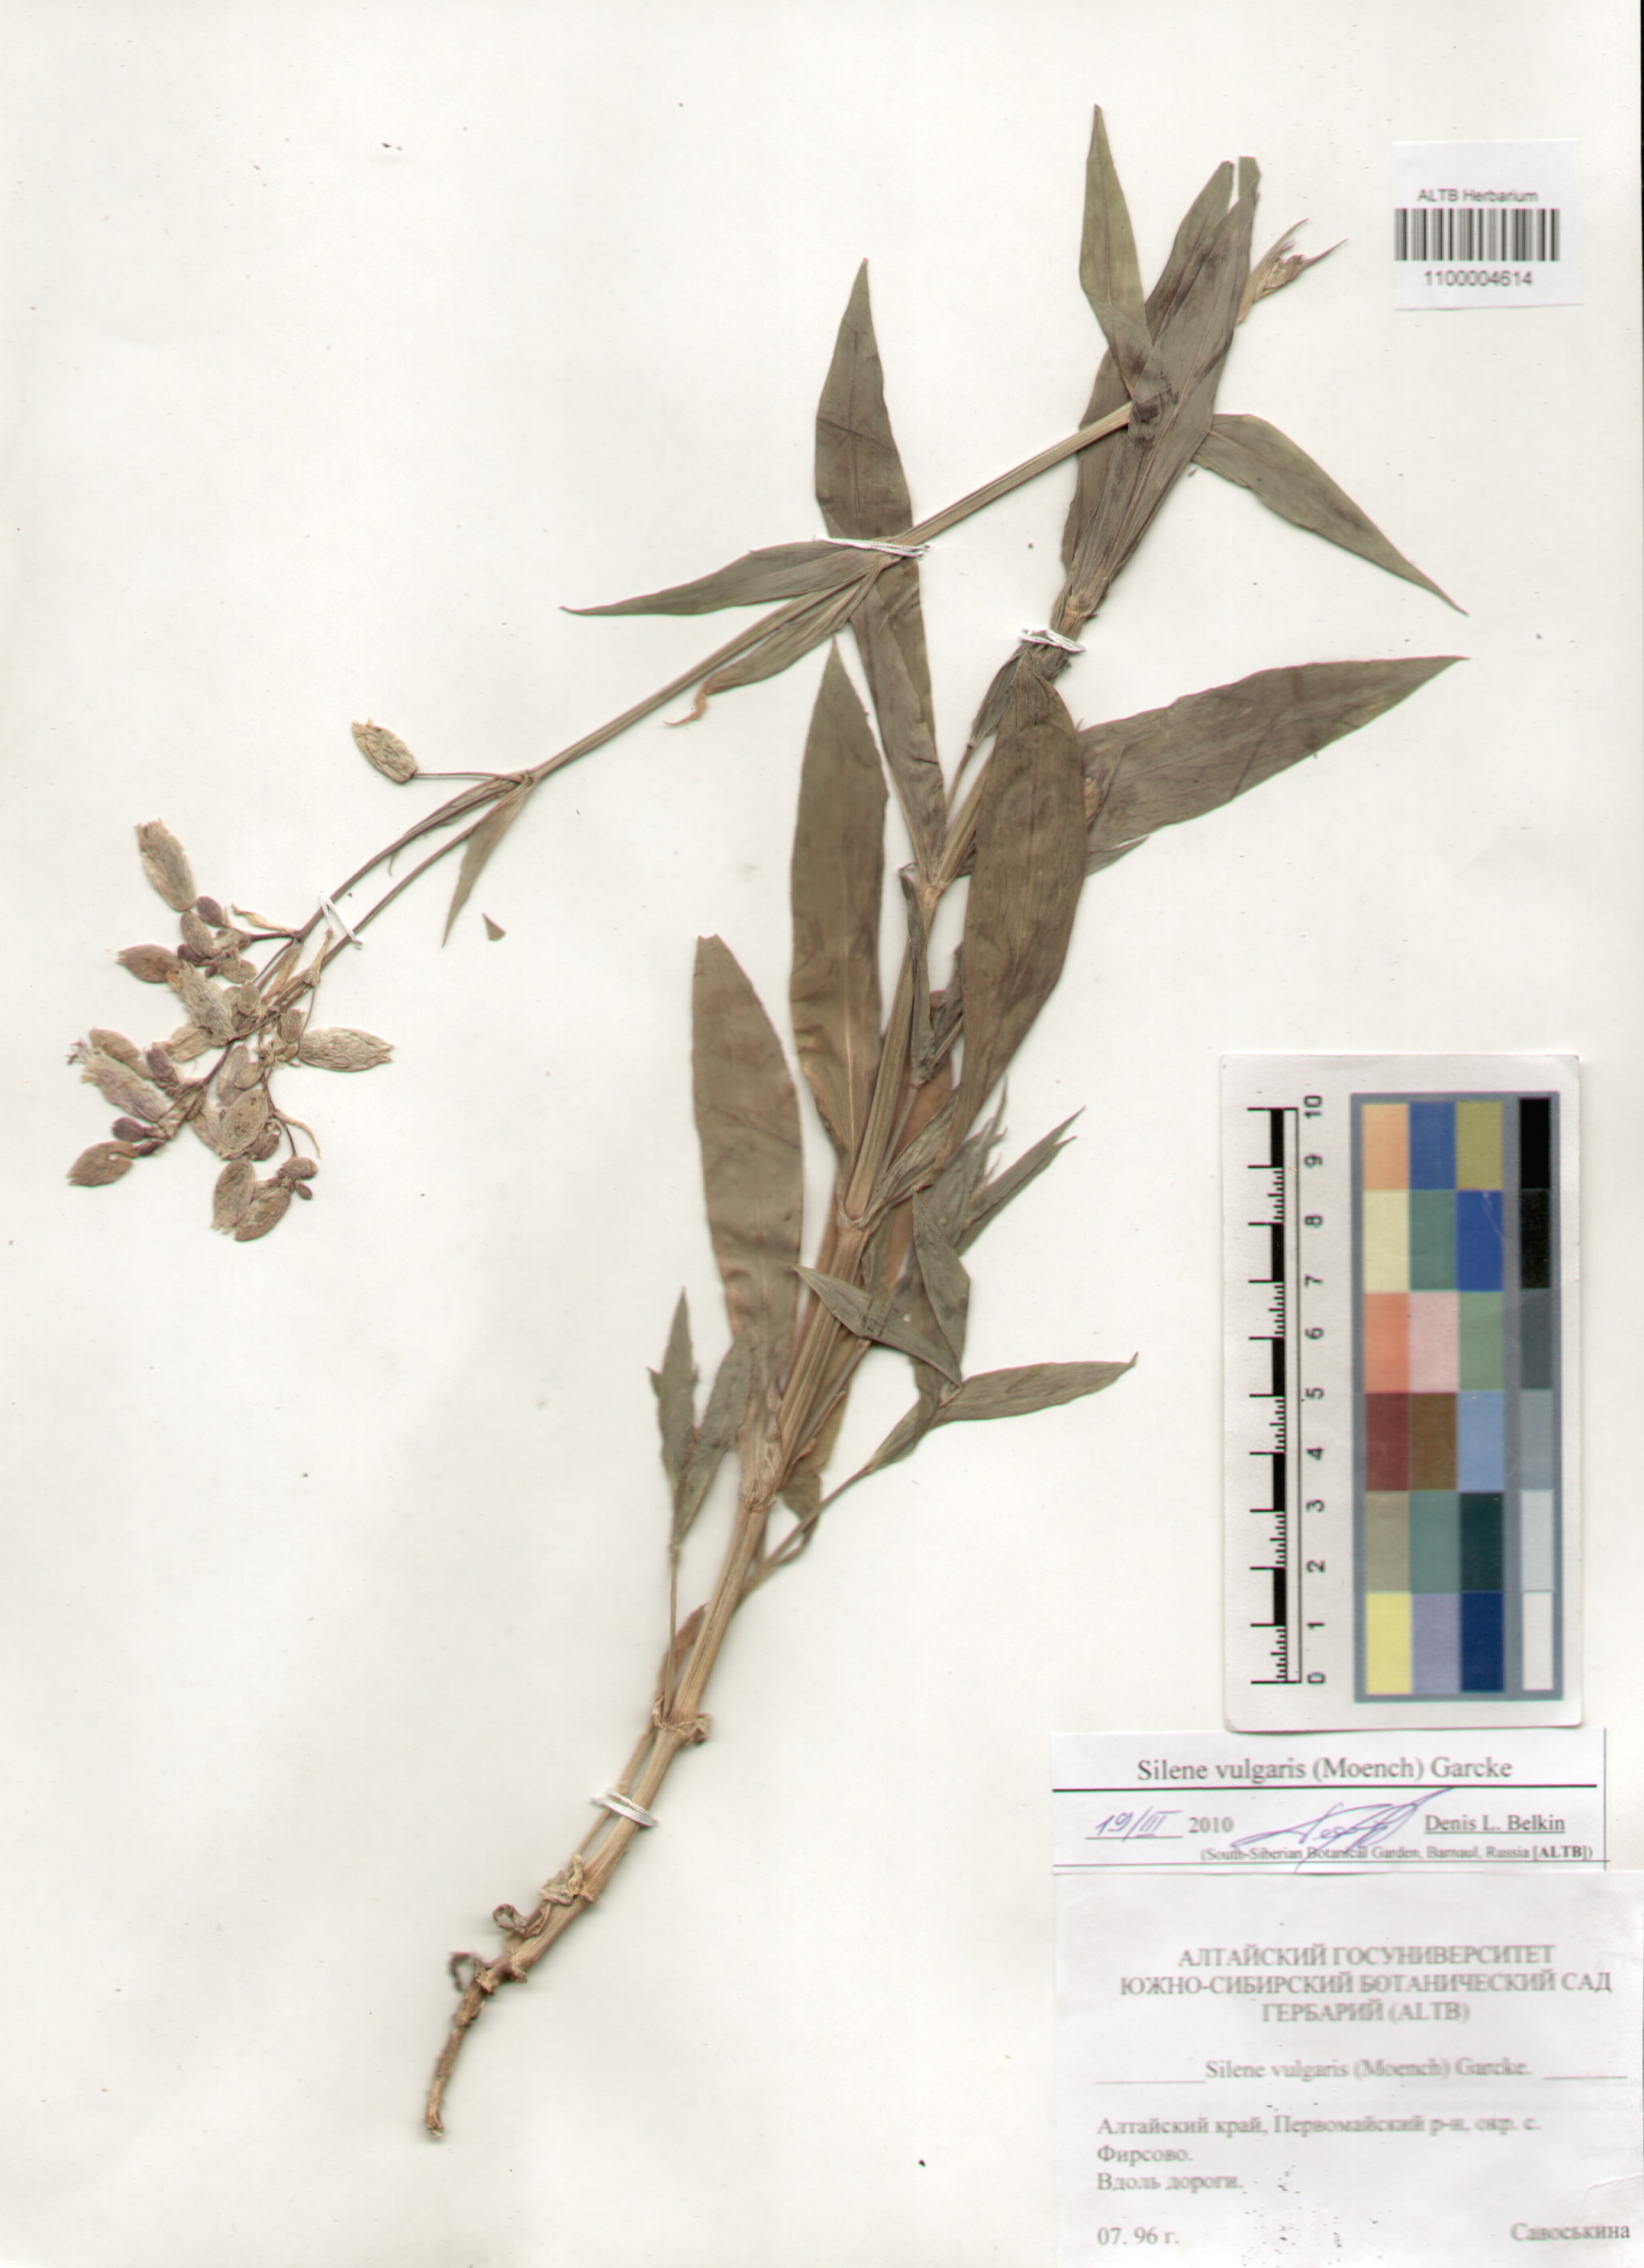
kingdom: Plantae
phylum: Tracheophyta
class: Magnoliopsida
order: Caryophyllales
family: Caryophyllaceae
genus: Silene
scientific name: Silene vulgaris
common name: Bladder campion
